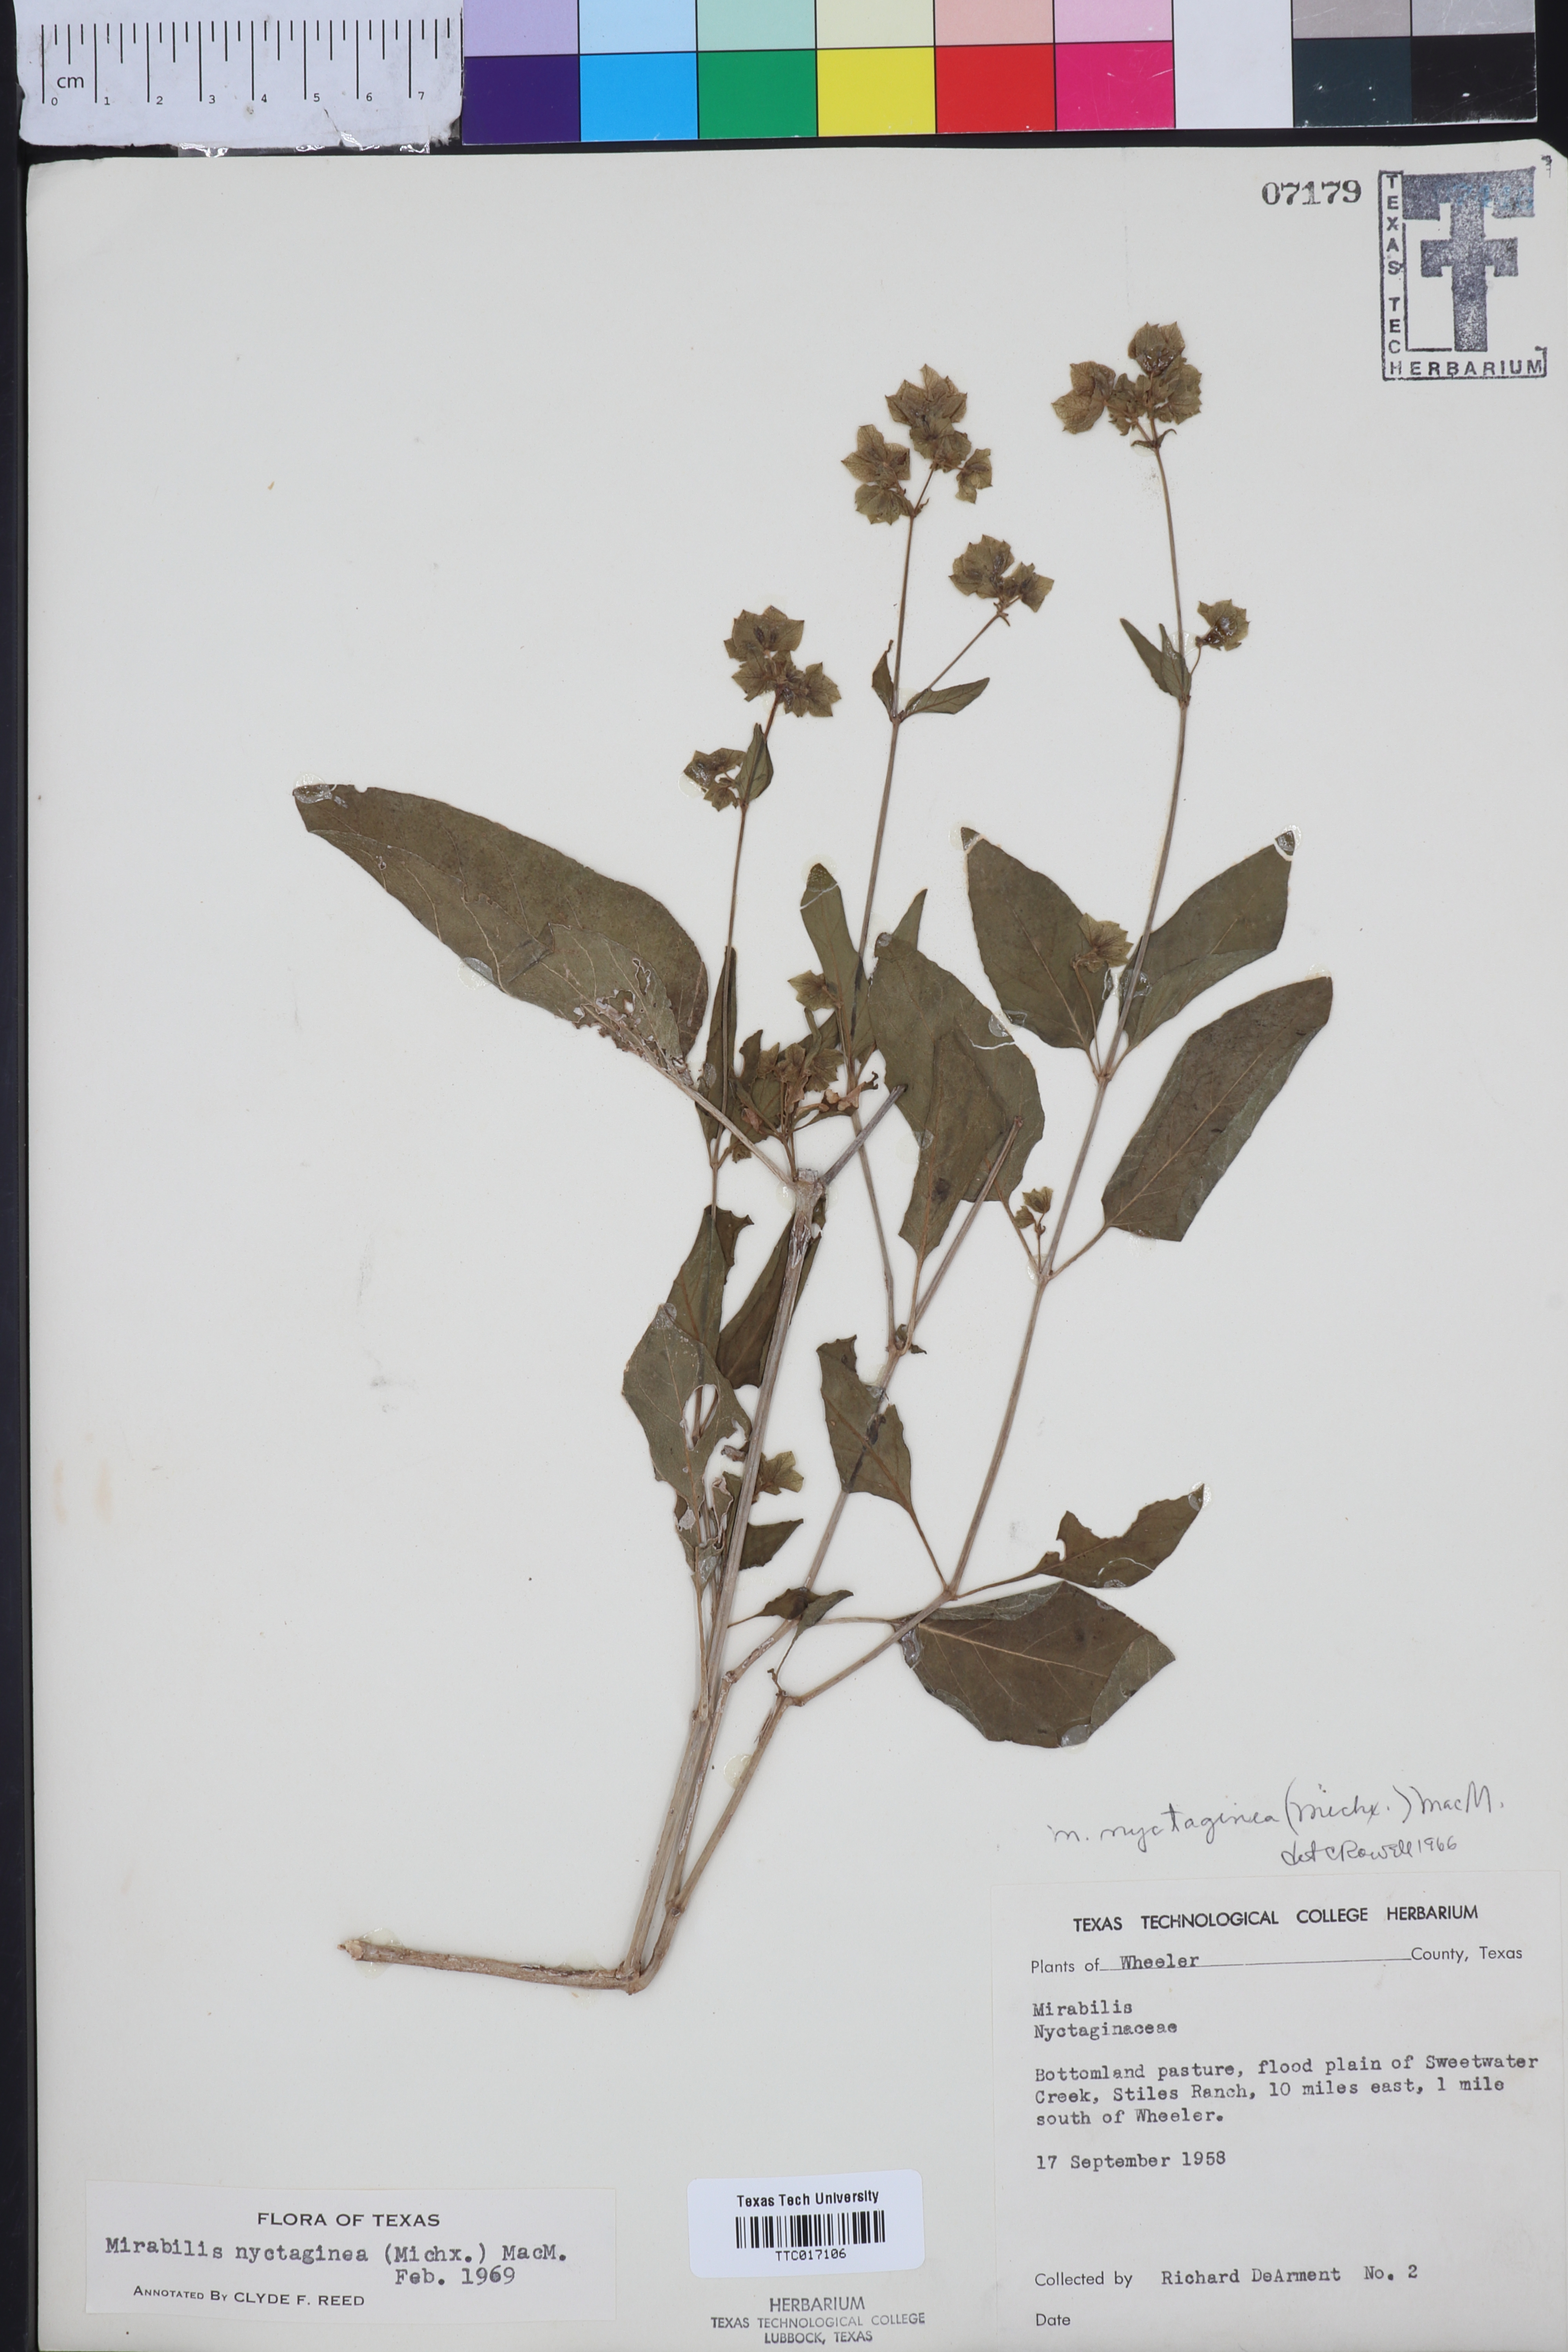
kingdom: Plantae
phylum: Tracheophyta
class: Magnoliopsida
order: Caryophyllales
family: Nyctaginaceae
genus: Mirabilis
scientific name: Mirabilis nyctaginea
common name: Umbrella wort
